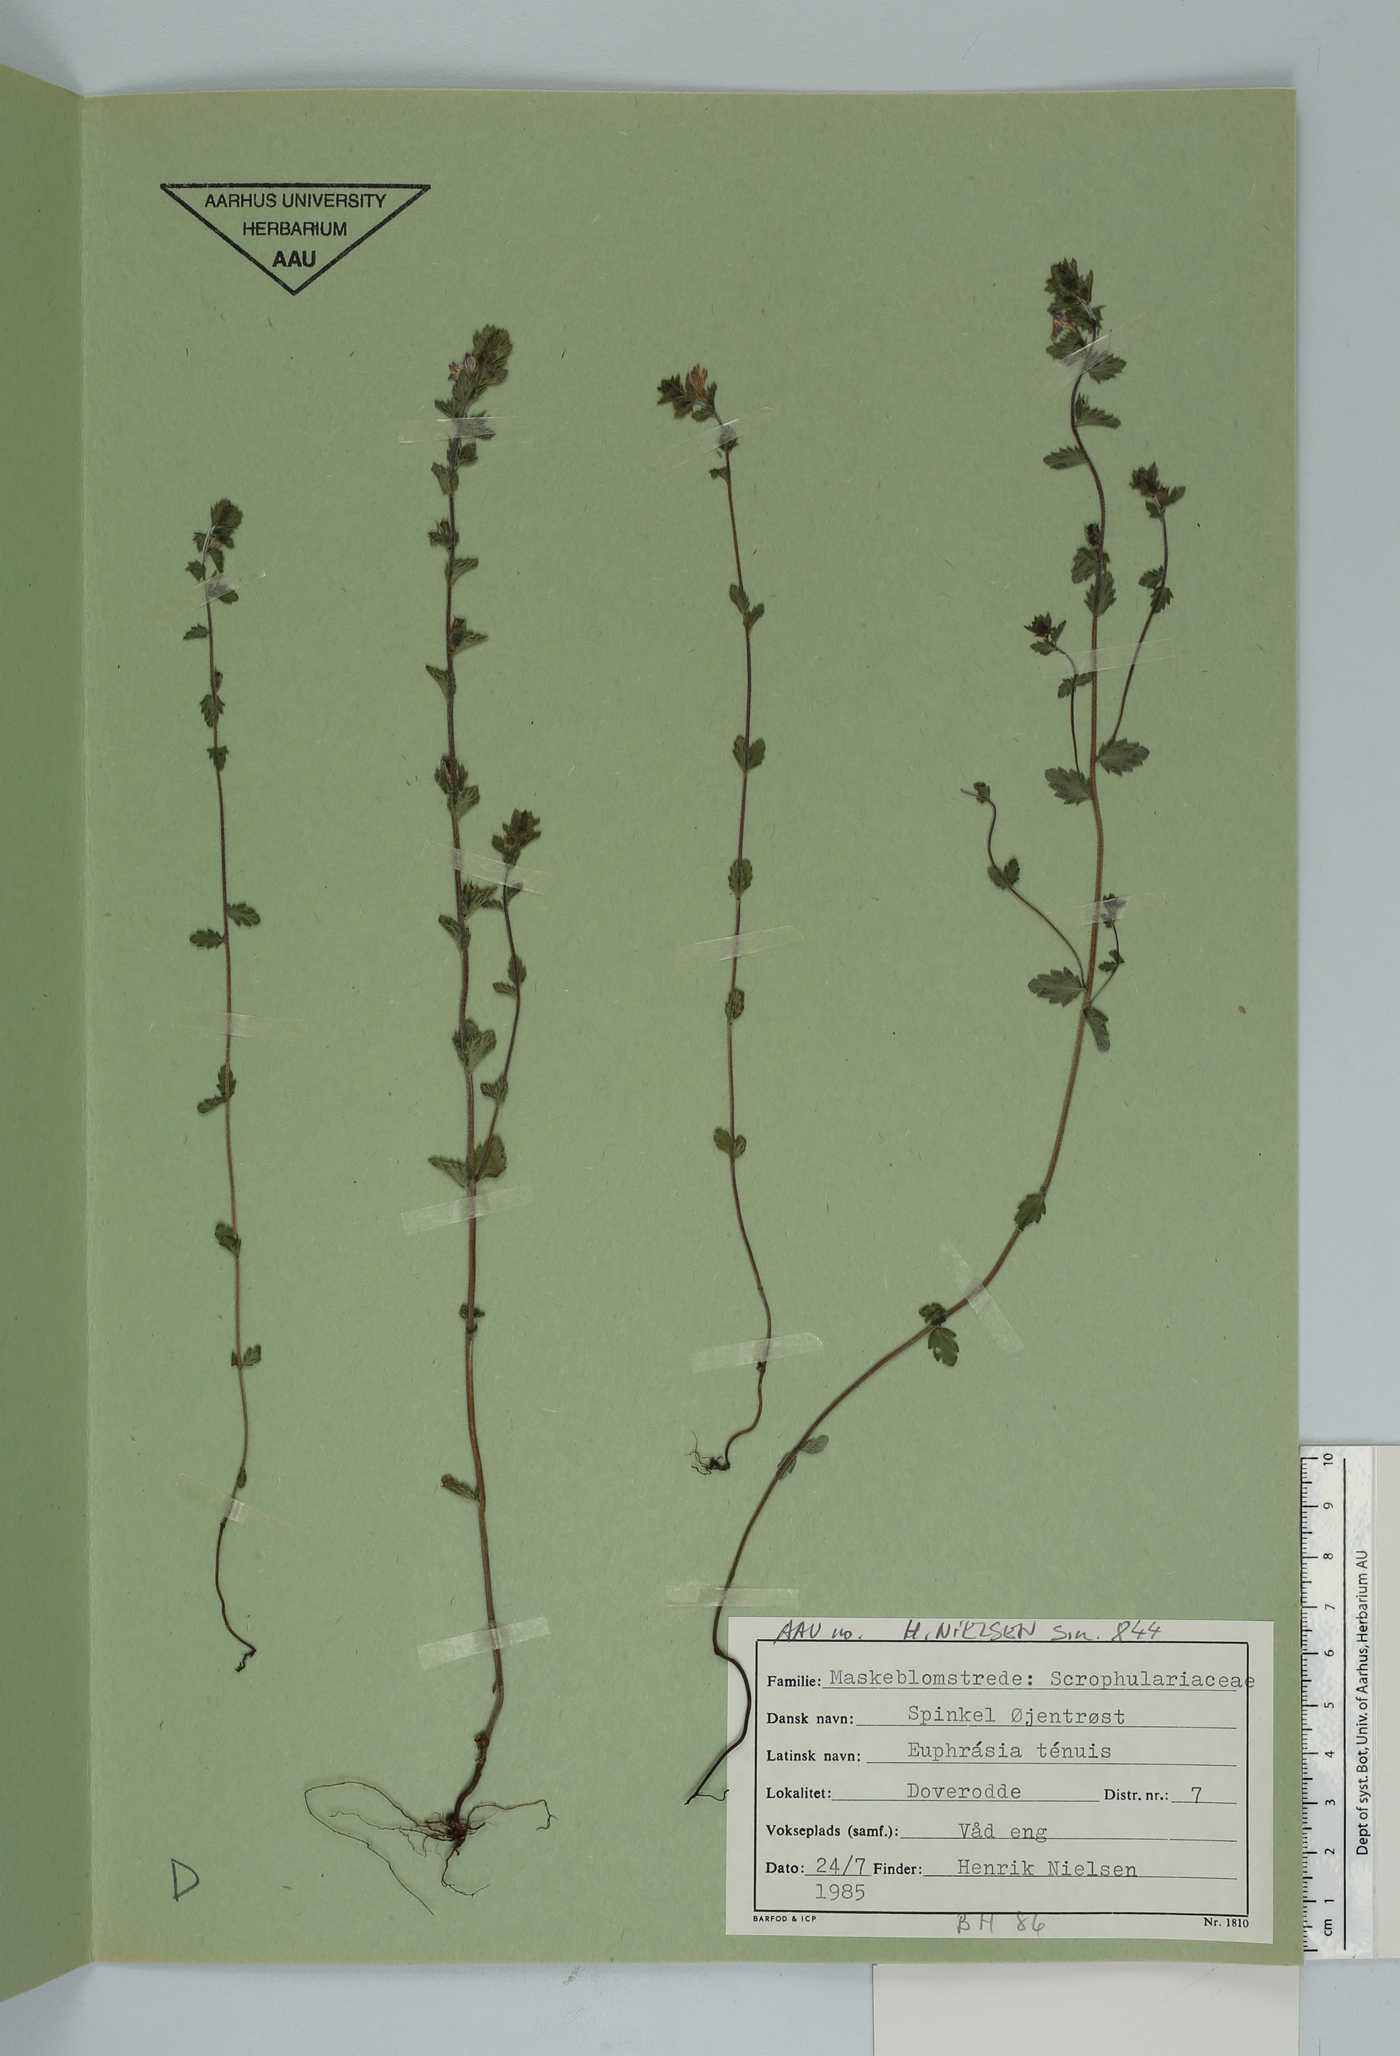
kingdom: Plantae
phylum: Tracheophyta
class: Magnoliopsida
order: Lamiales
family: Orobanchaceae
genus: Euphrasia
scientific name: Euphrasia vernalis
